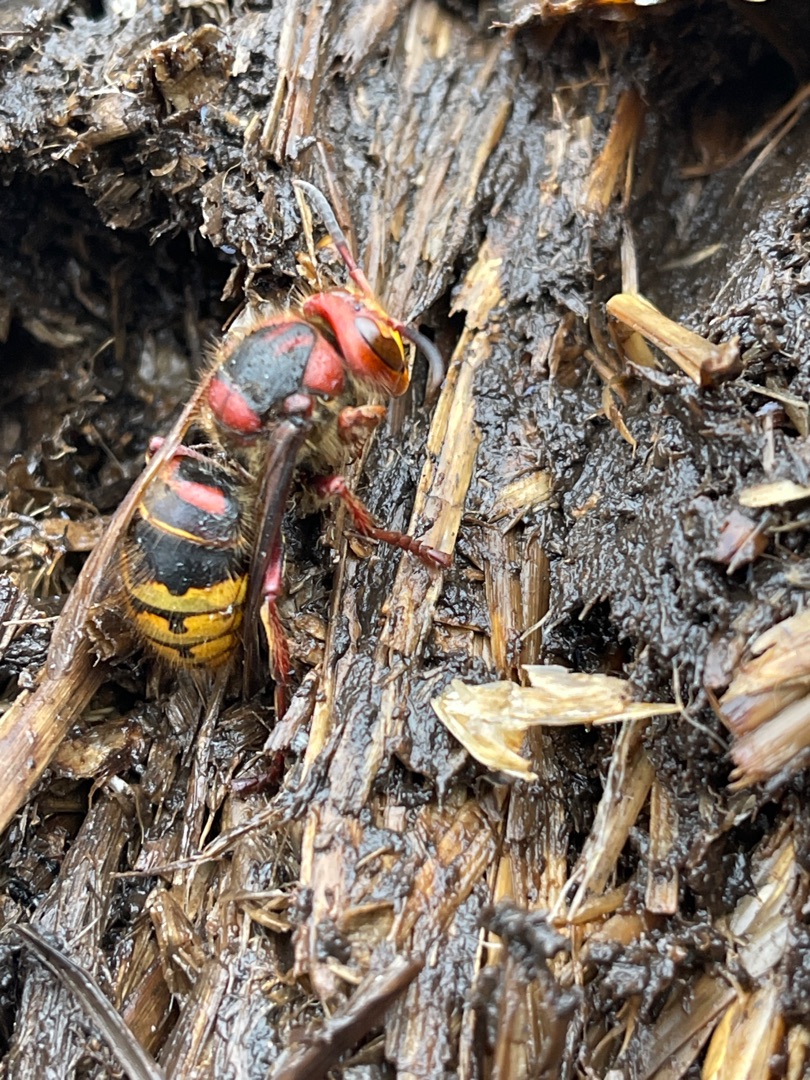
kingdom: Animalia
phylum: Arthropoda
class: Insecta
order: Hymenoptera
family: Vespidae
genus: Vespa
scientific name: Vespa crabro
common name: Stor gedehams
